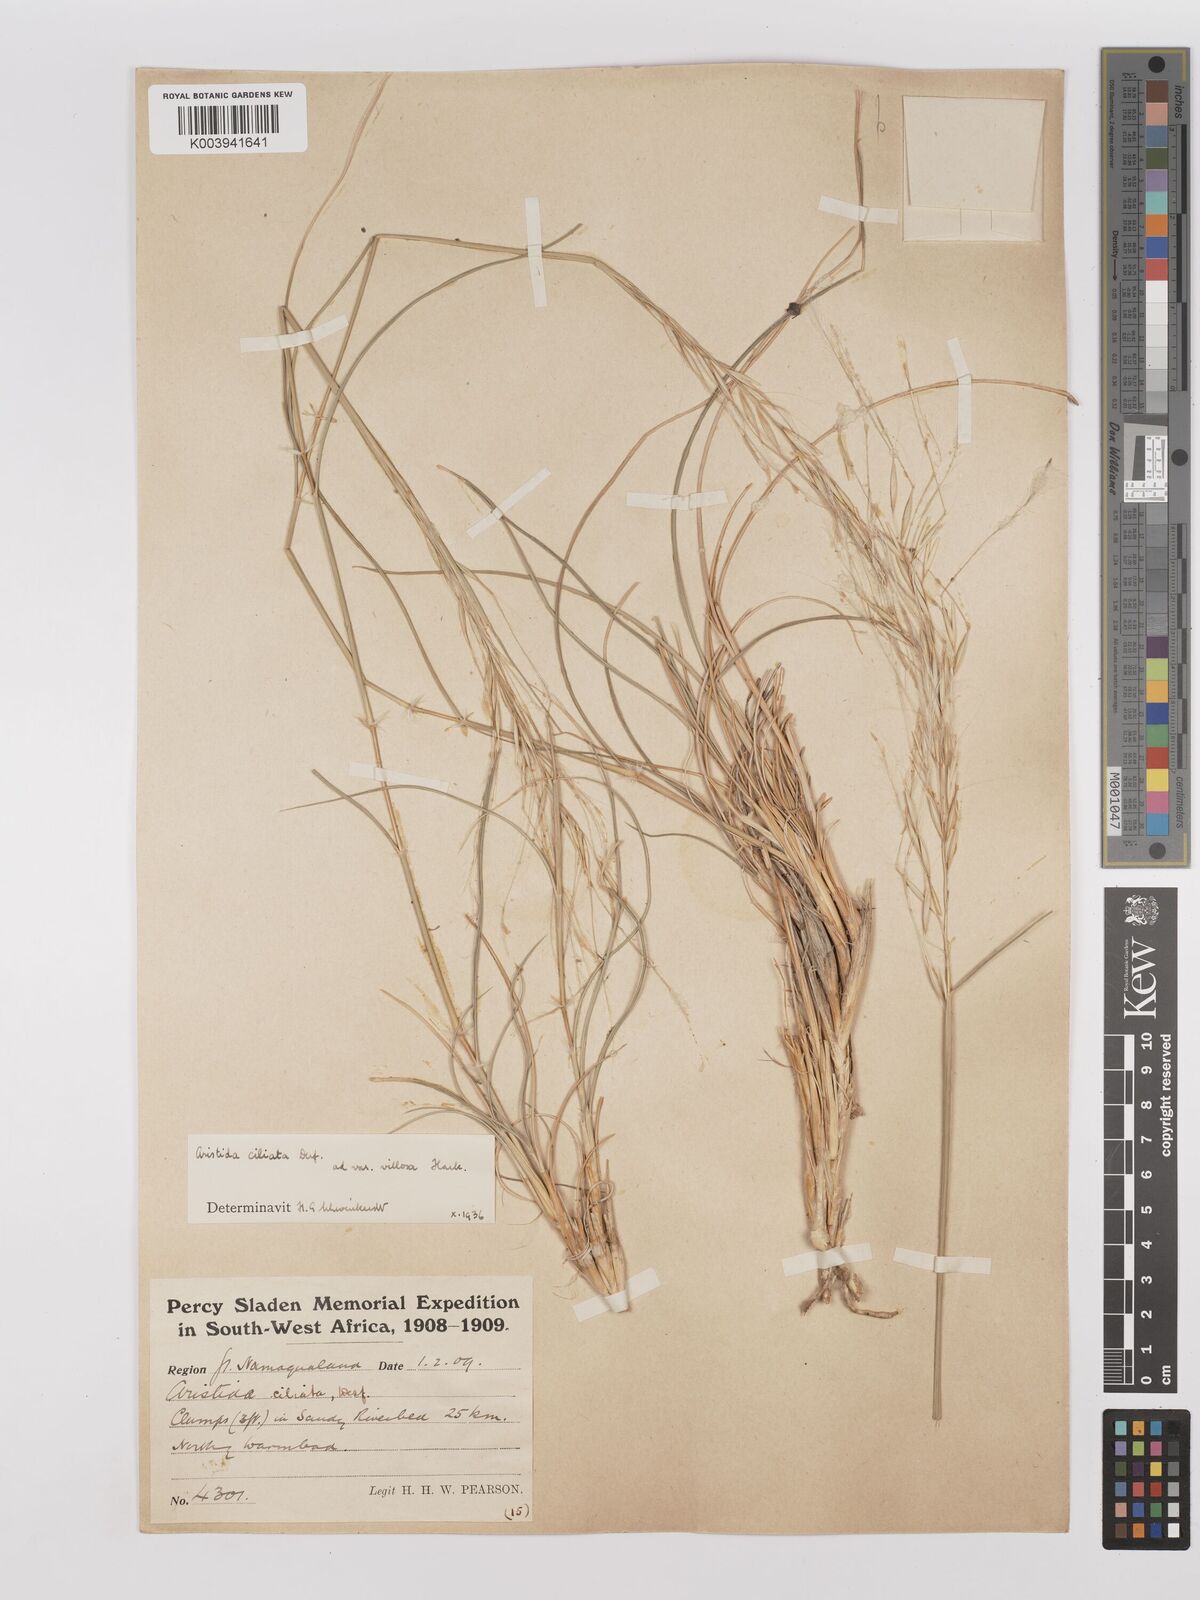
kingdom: Plantae
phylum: Tracheophyta
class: Liliopsida
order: Poales
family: Poaceae
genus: Stipagrostis
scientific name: Stipagrostis ciliata
